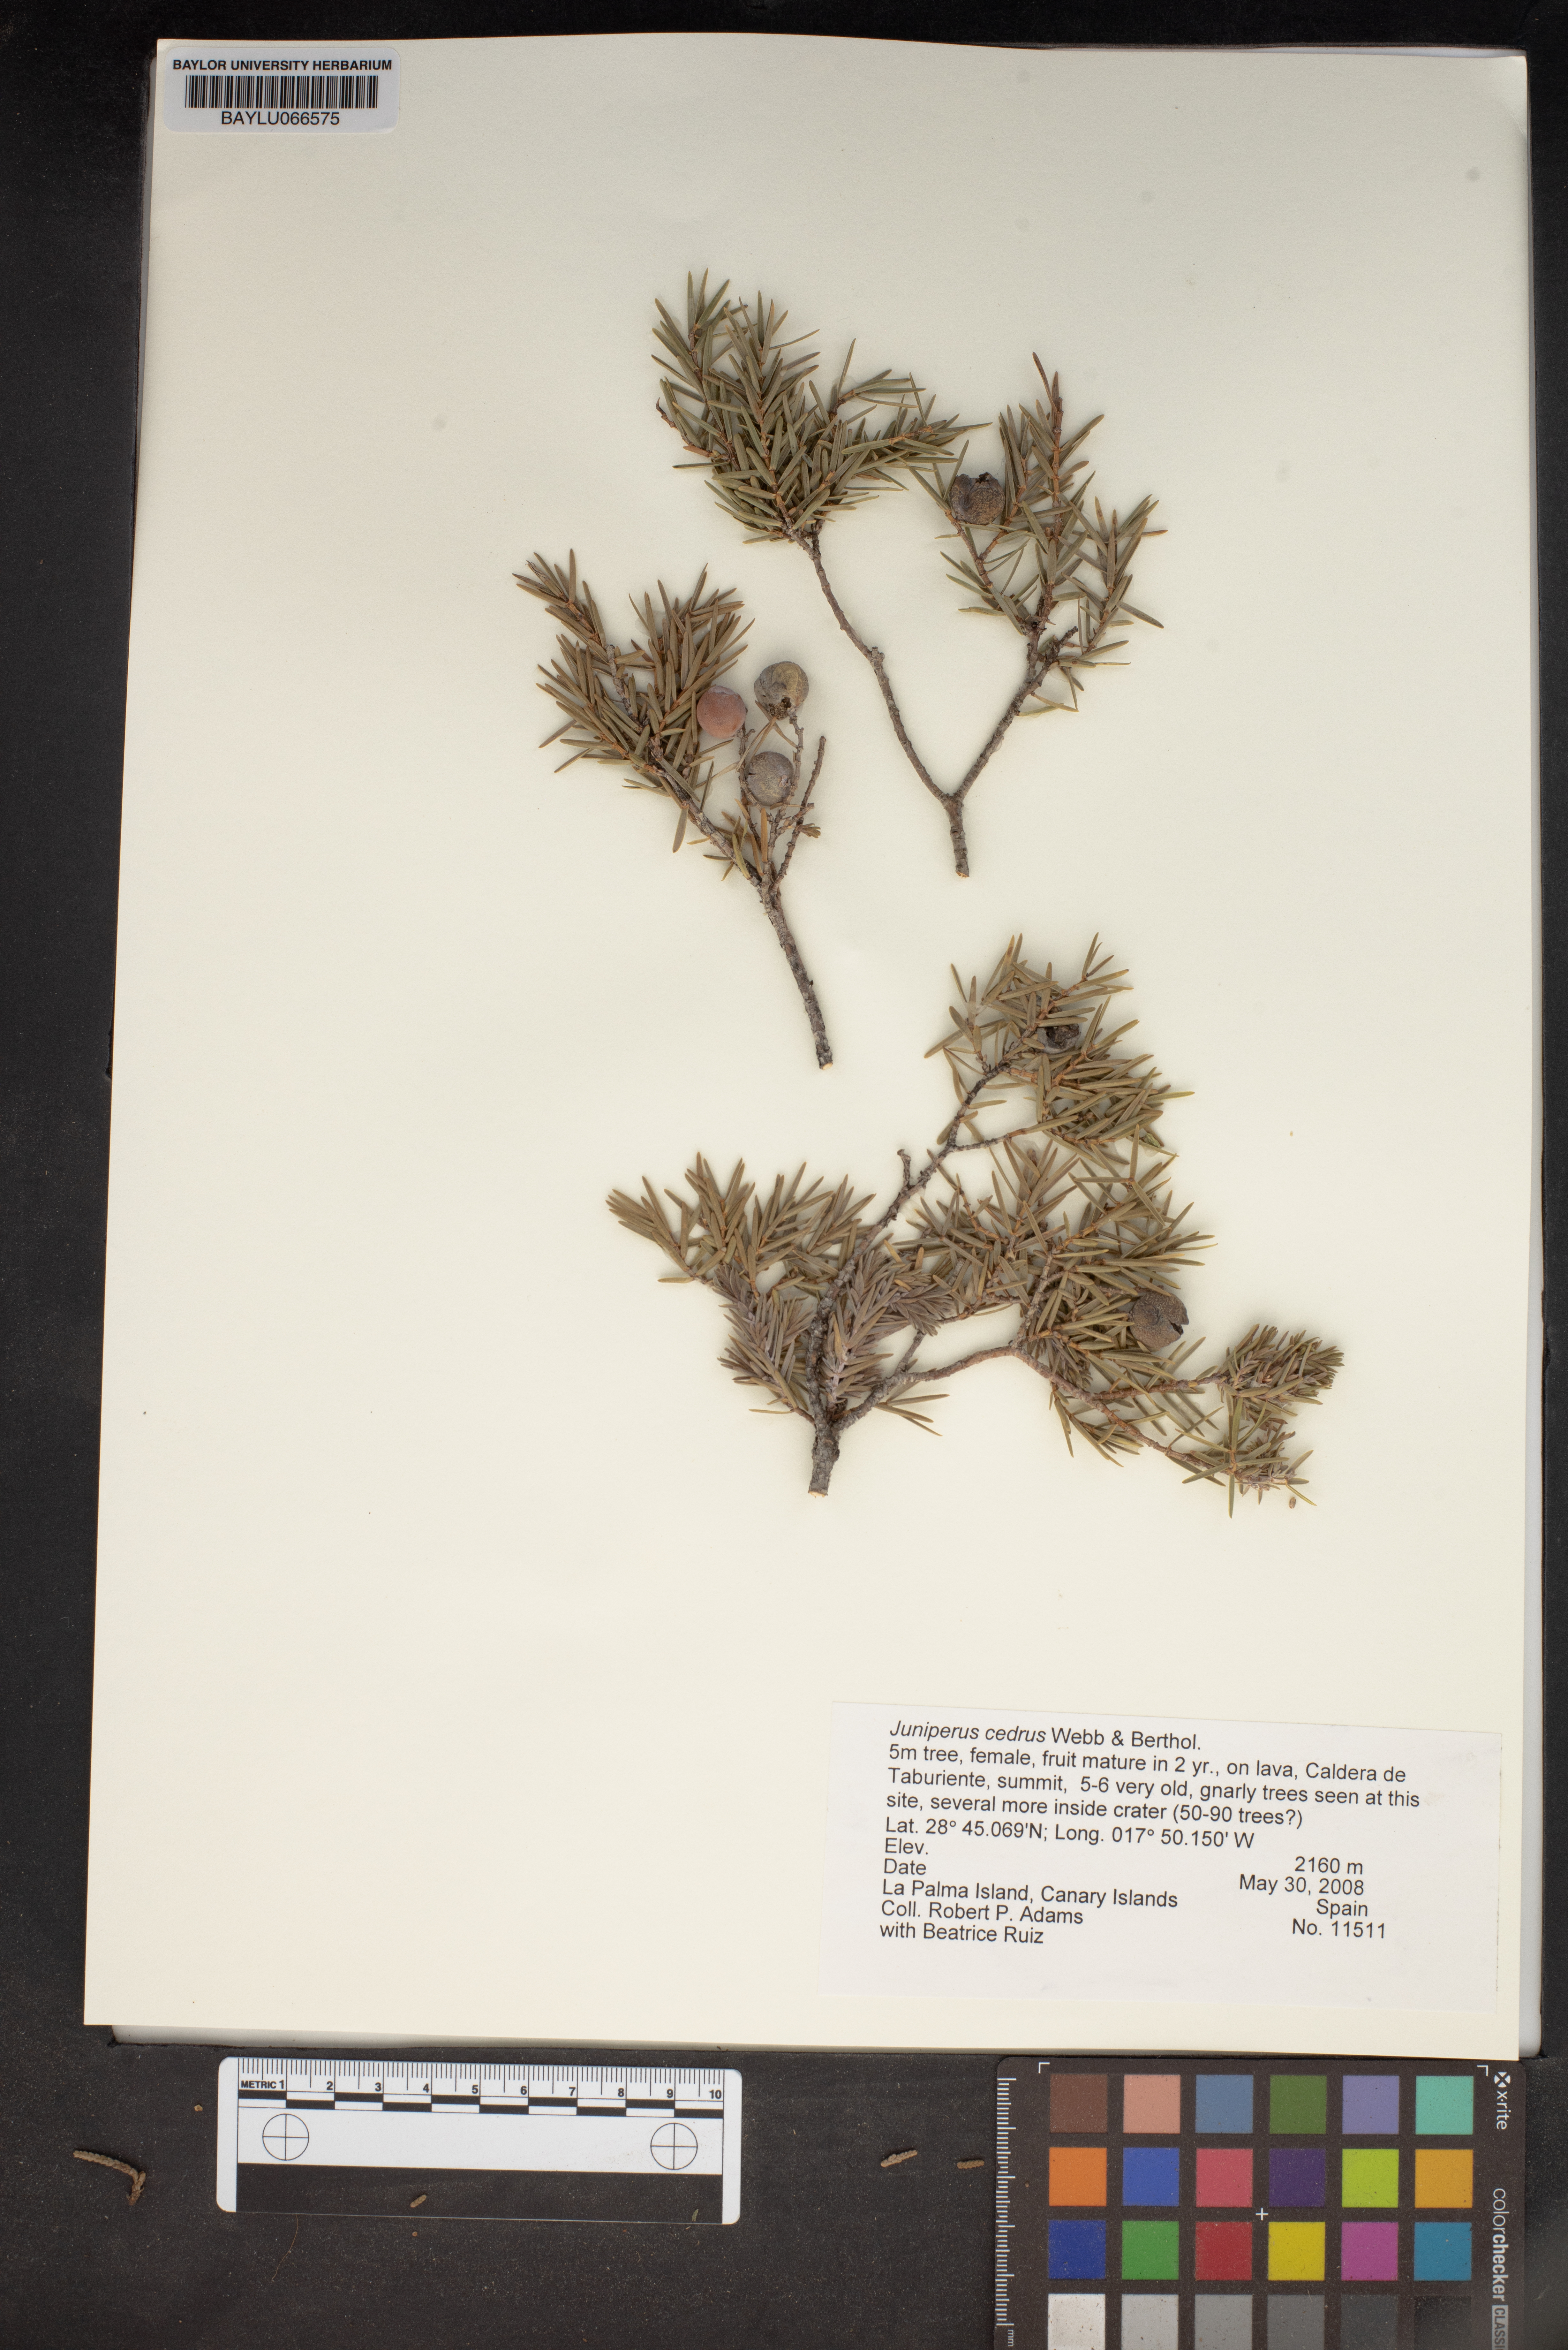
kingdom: Plantae
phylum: Tracheophyta
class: Pinopsida
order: Pinales
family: Cupressaceae
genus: Juniperus
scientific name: Juniperus cedrus
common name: Canary islands juniper
